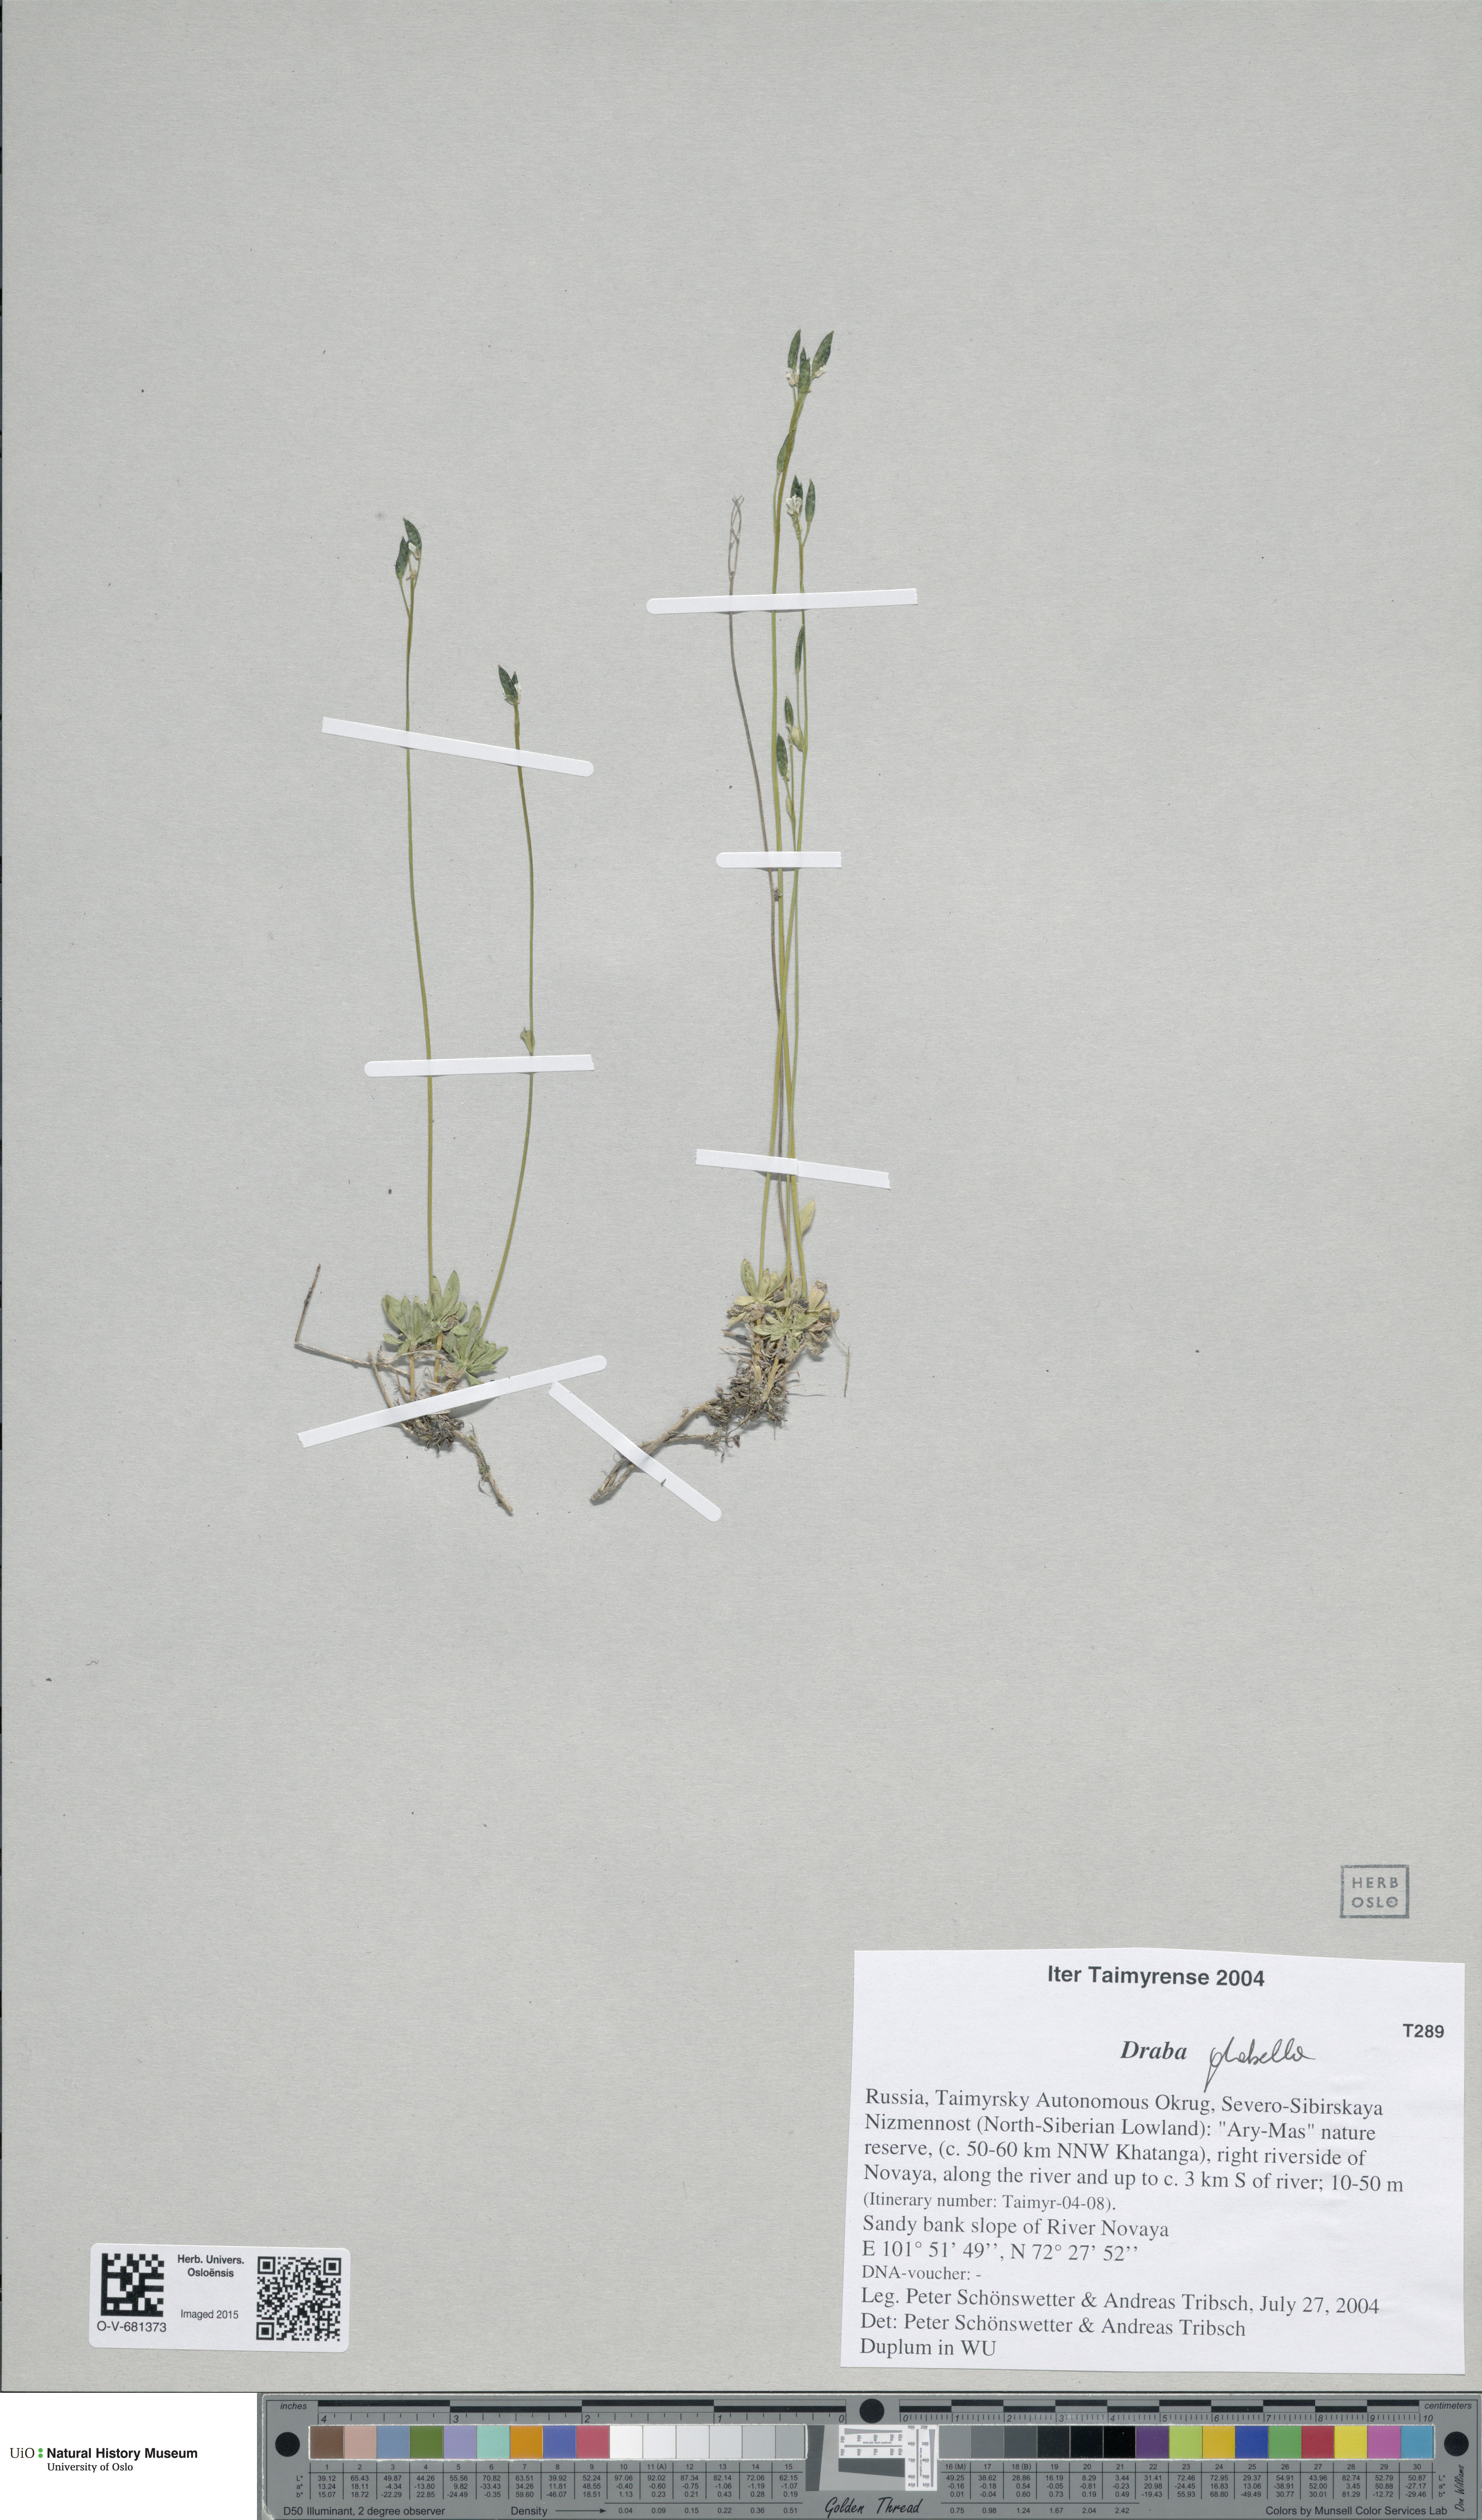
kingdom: Plantae
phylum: Tracheophyta
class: Magnoliopsida
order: Brassicales
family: Brassicaceae
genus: Draba
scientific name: Draba glabella
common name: Glaucous draba
